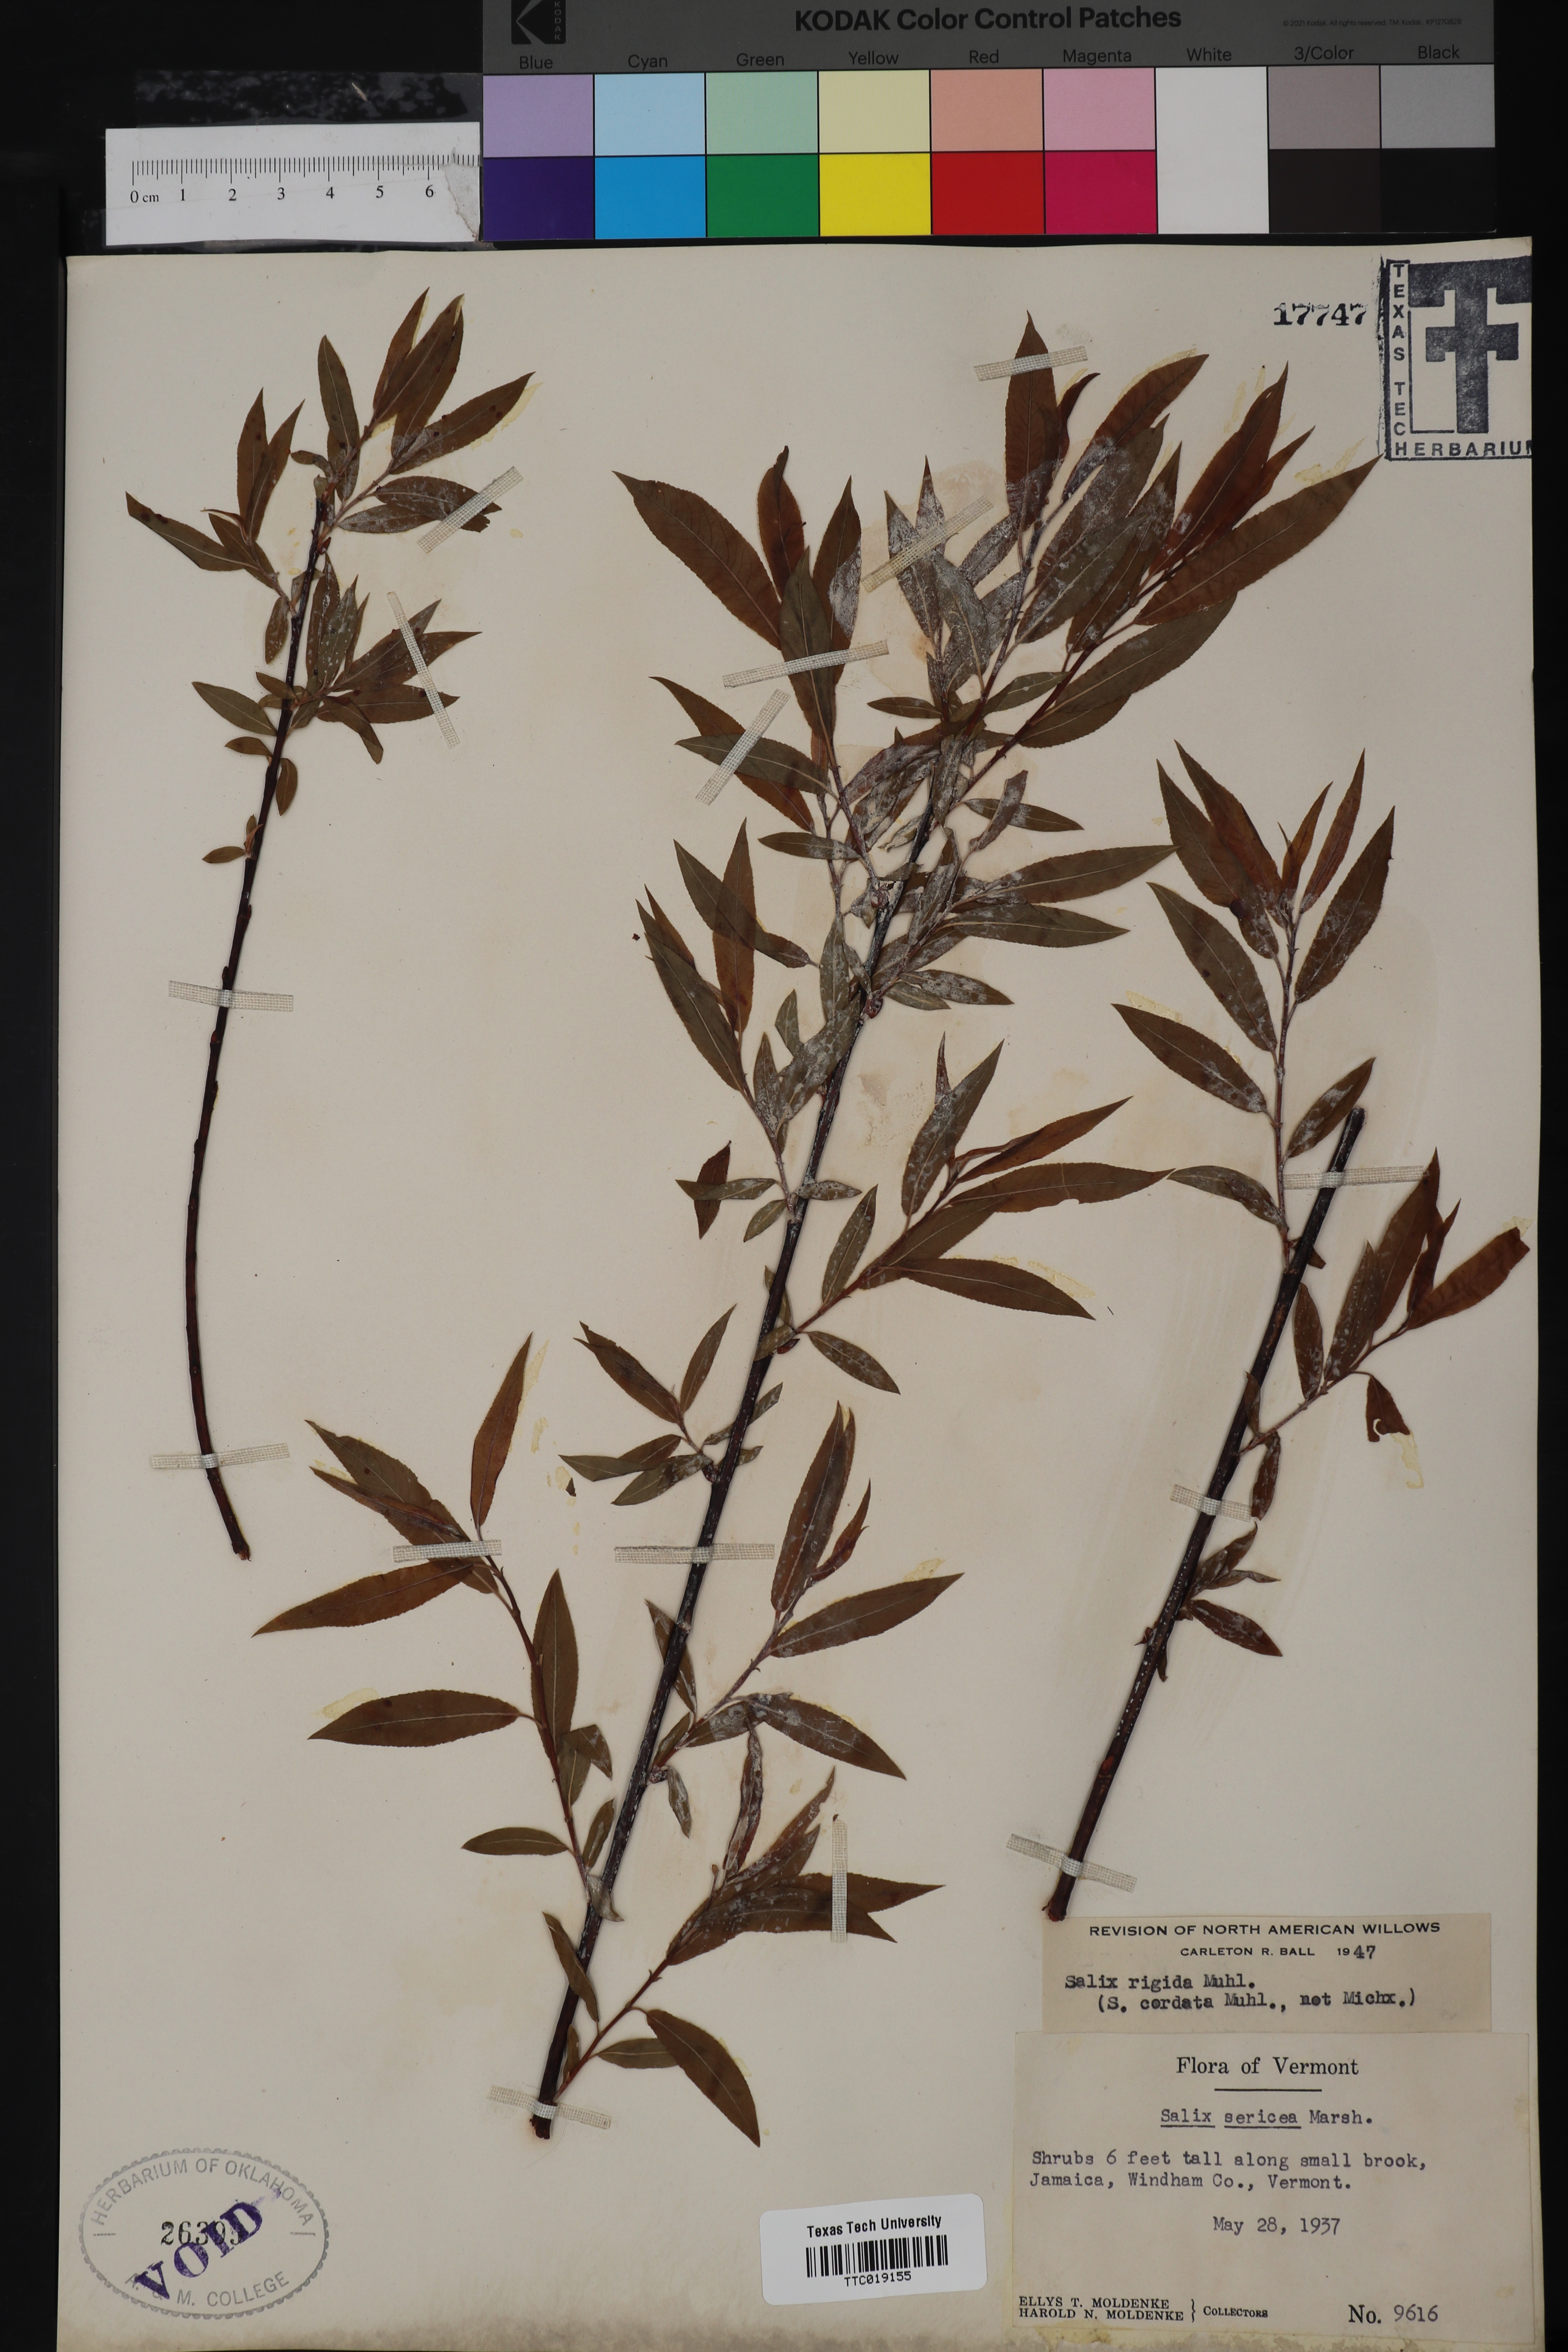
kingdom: Plantae
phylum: Tracheophyta
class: Magnoliopsida
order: Malpighiales
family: Salicaceae
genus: Salix
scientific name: Salix eriocephala
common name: Heart-leaved willow
